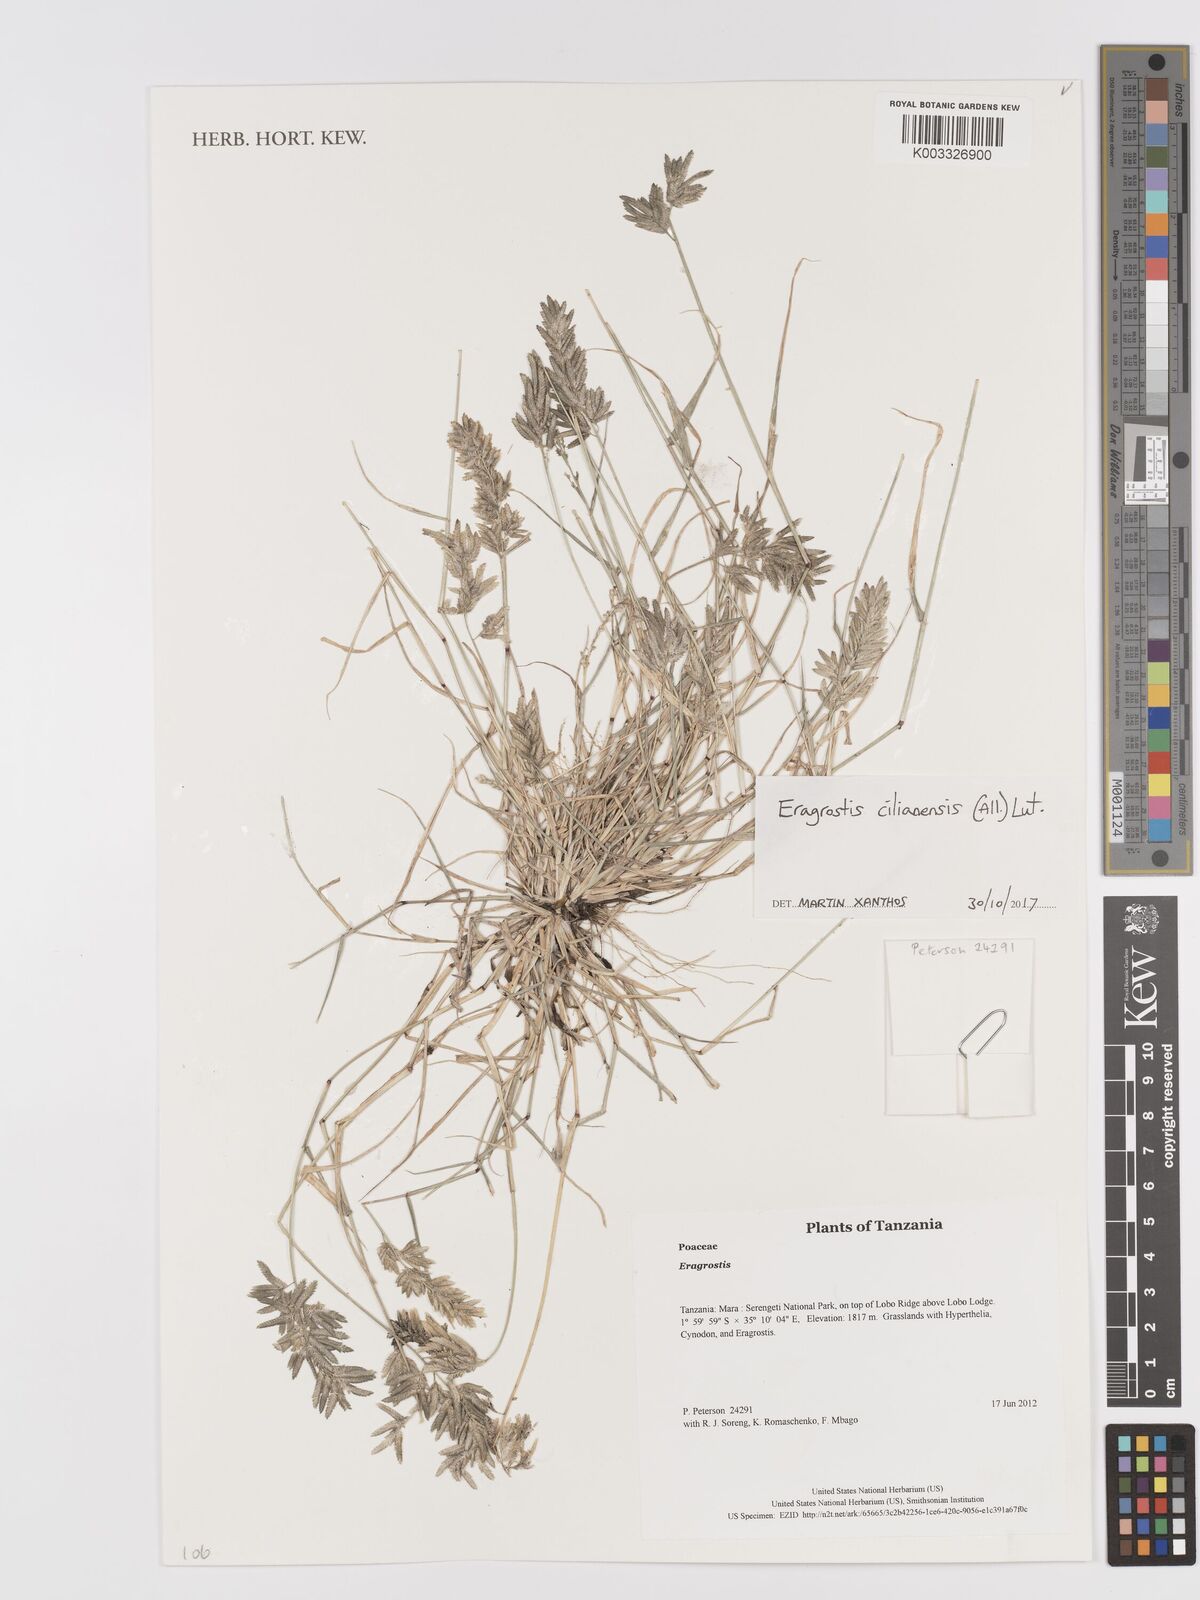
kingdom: Plantae
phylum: Tracheophyta
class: Liliopsida
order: Poales
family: Poaceae
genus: Eragrostis
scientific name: Eragrostis cilianensis
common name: Stinkgrass
